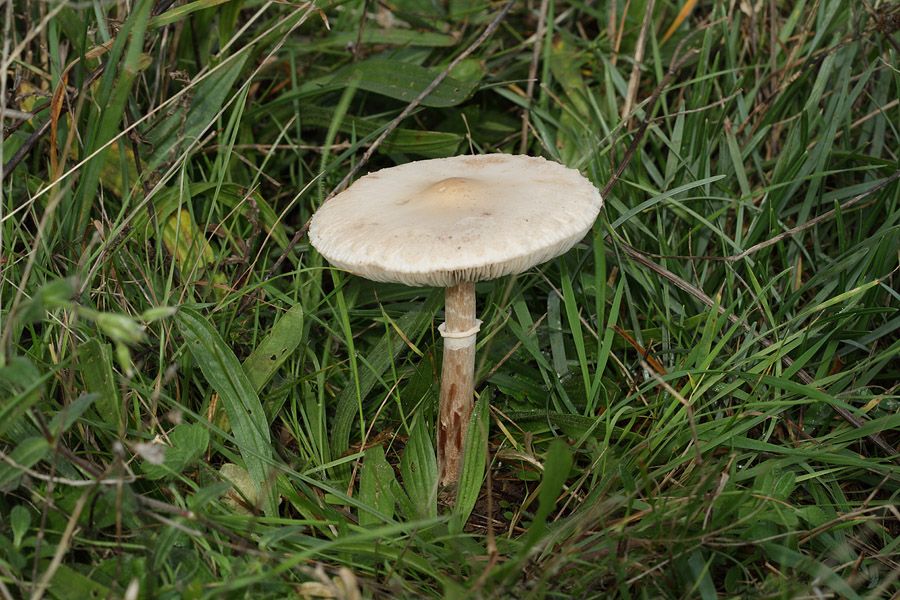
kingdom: Fungi
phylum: Basidiomycota
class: Agaricomycetes
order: Agaricales
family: Agaricaceae
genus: Macrolepiota
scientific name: Macrolepiota excoriata
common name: mark-kæmpeparasolhat
